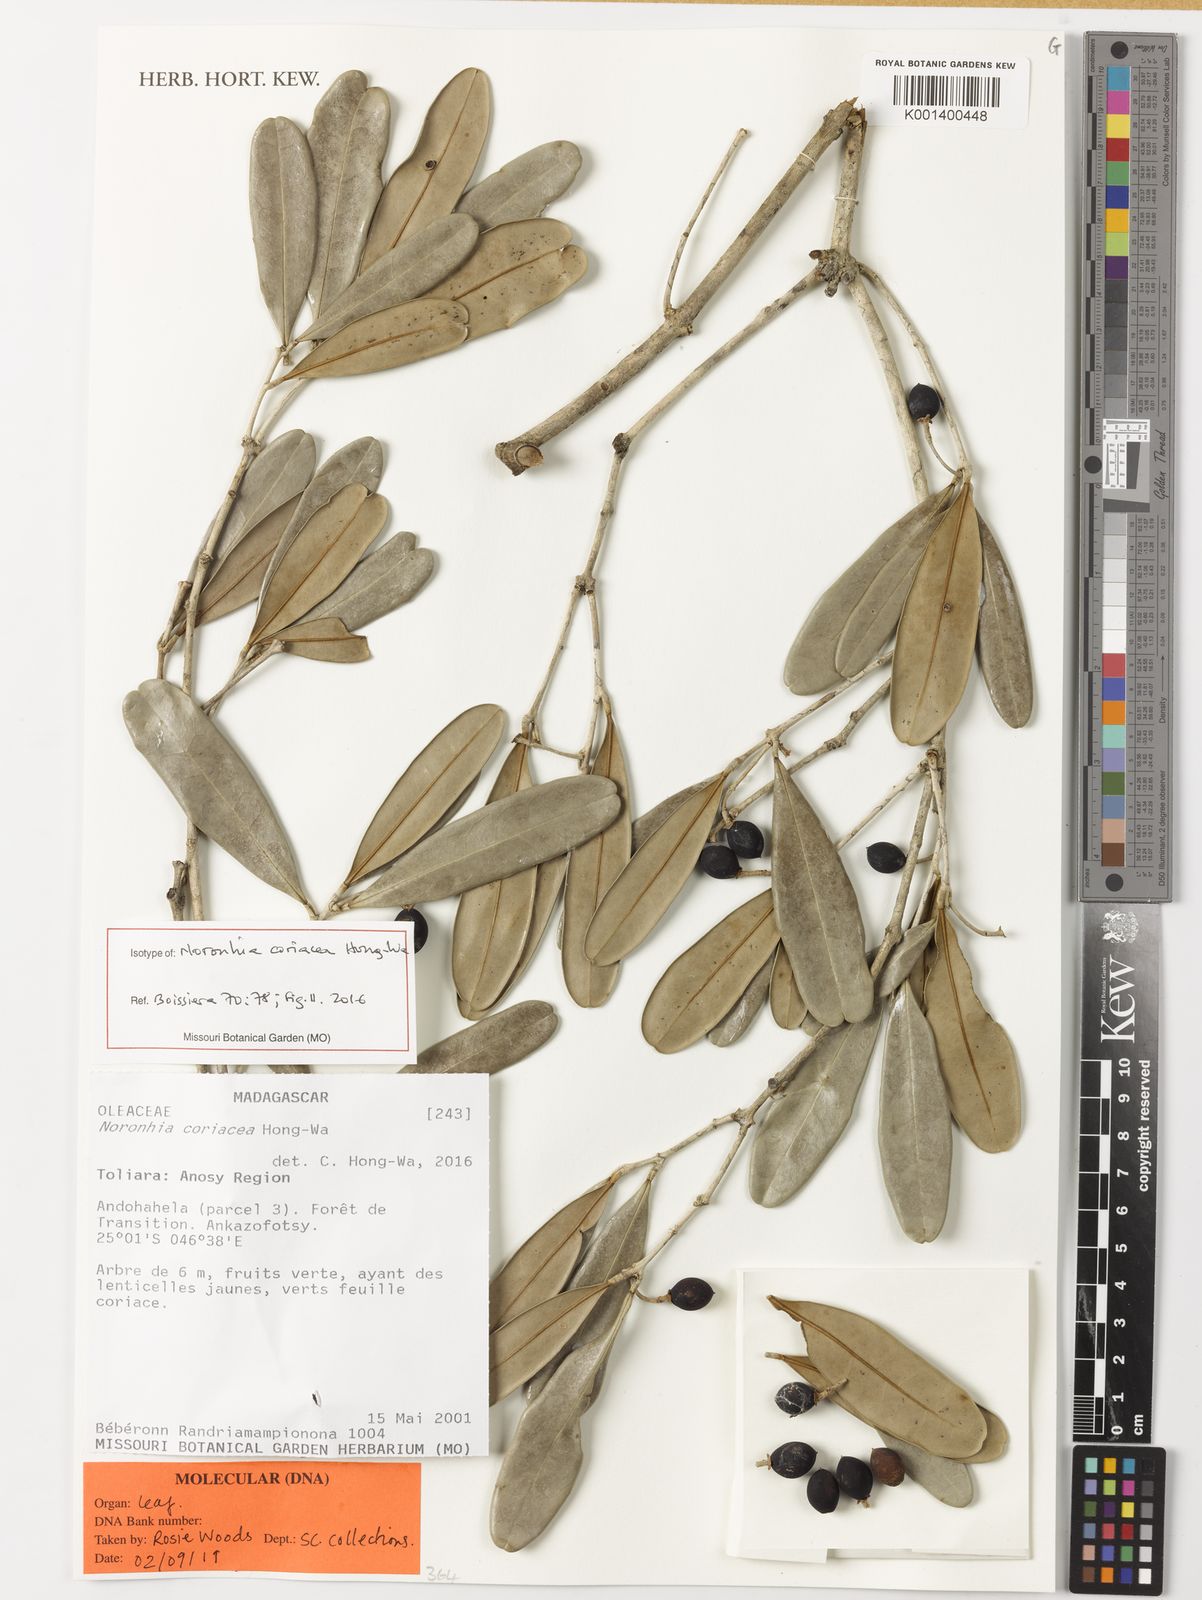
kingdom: Plantae
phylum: Tracheophyta
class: Magnoliopsida
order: Lamiales
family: Oleaceae
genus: Noronhia
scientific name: Noronhia coriacea
